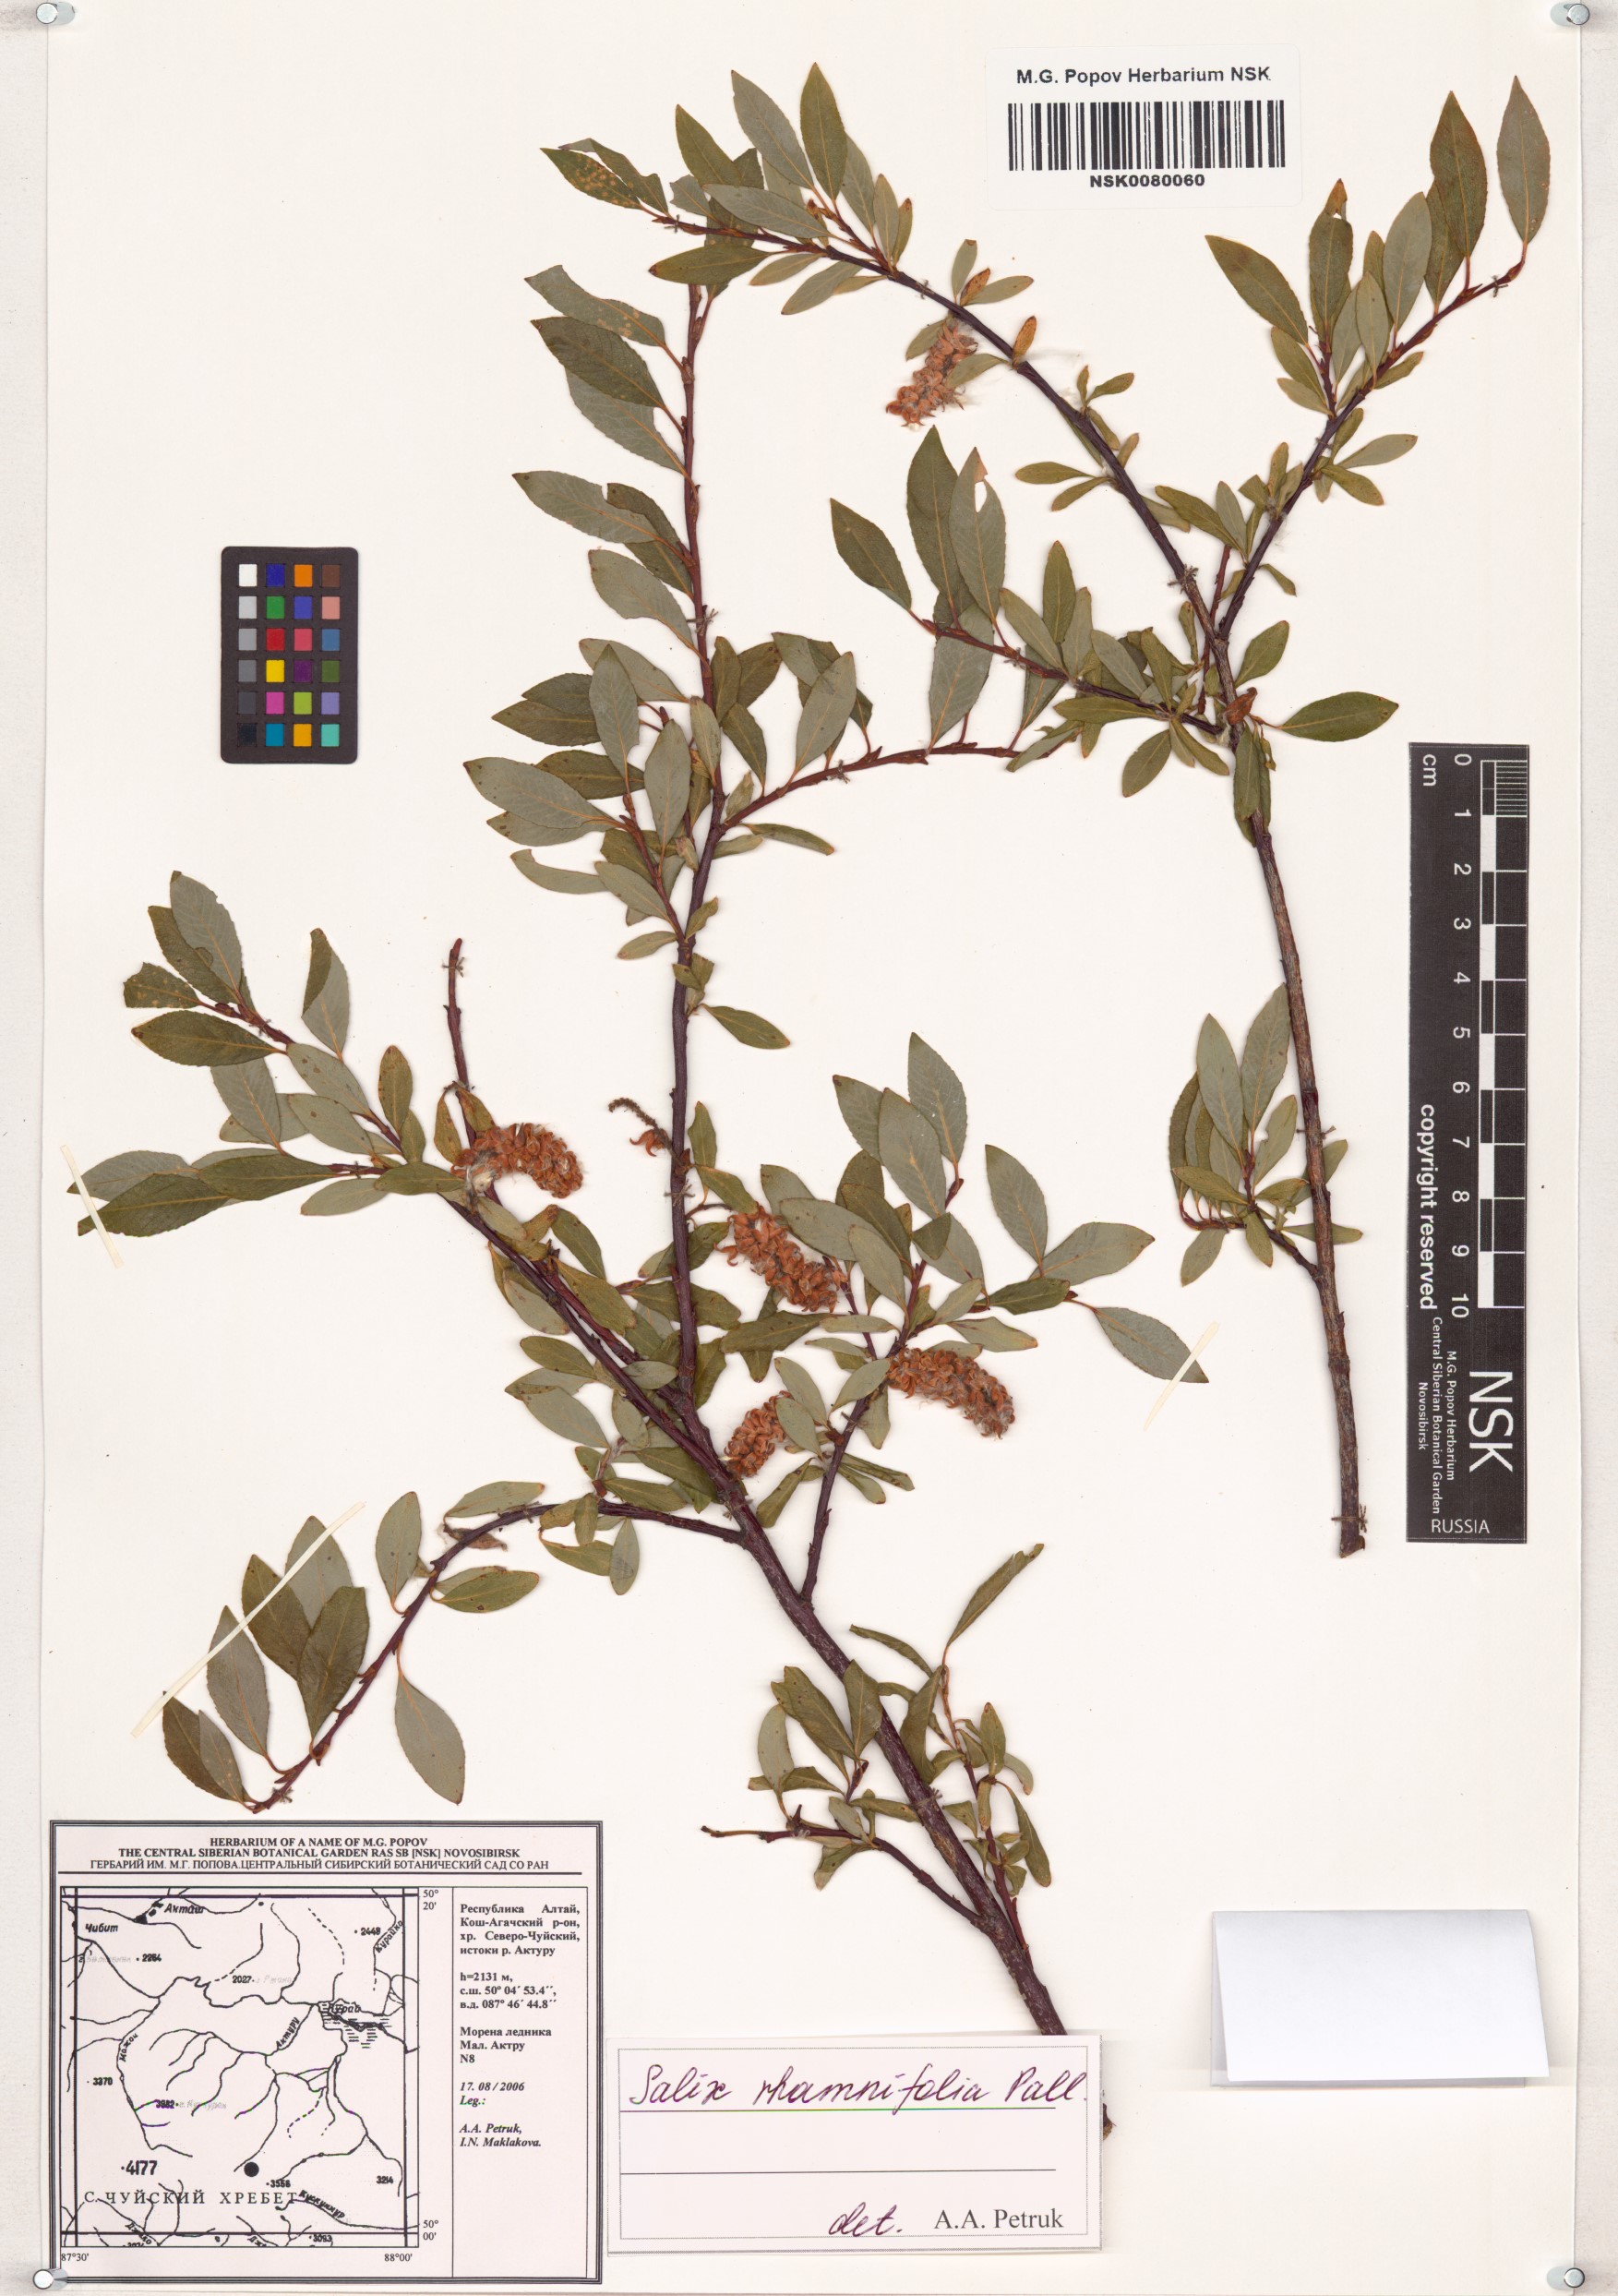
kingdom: Plantae
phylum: Tracheophyta
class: Magnoliopsida
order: Malpighiales
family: Salicaceae
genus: Salix
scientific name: Salix rhamnifolia
